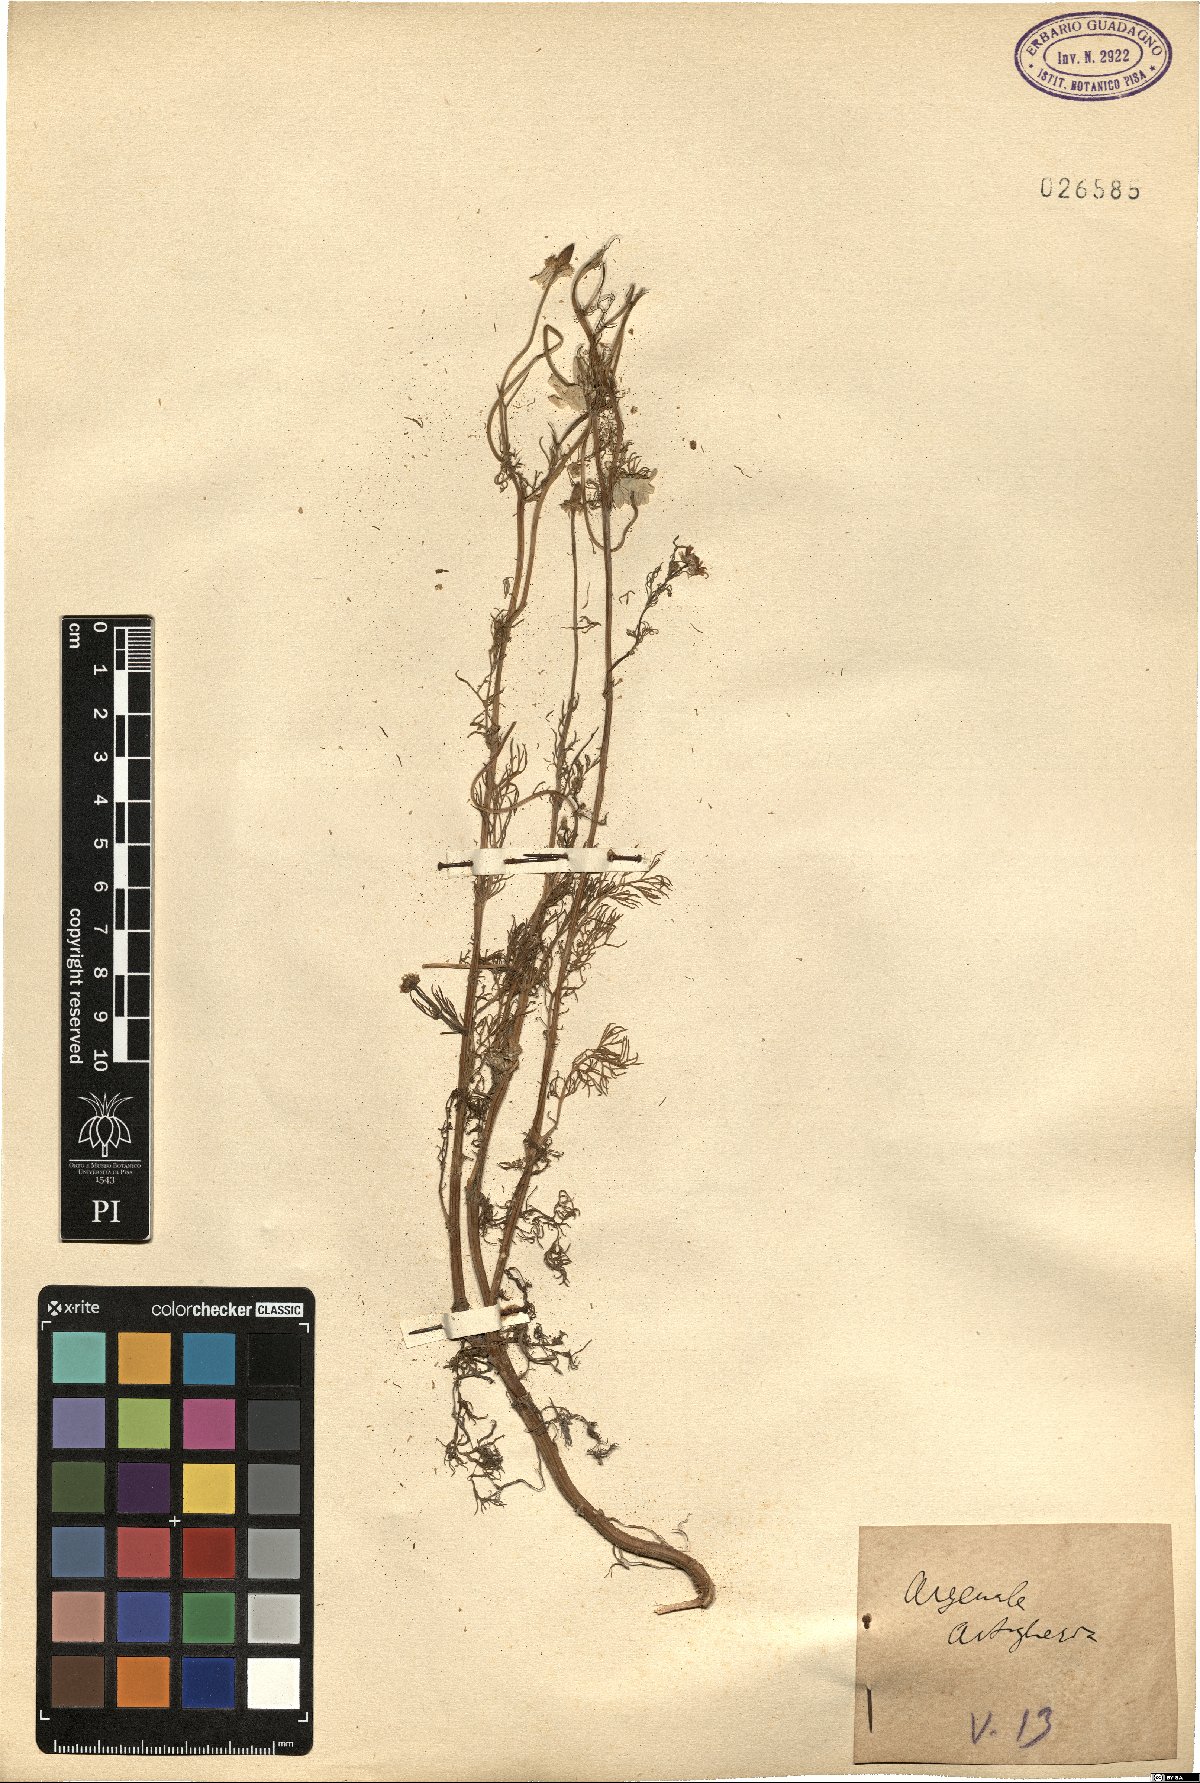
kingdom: Plantae
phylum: Tracheophyta
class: Magnoliopsida
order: Asterales
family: Asteraceae
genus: Matricaria
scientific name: Matricaria
